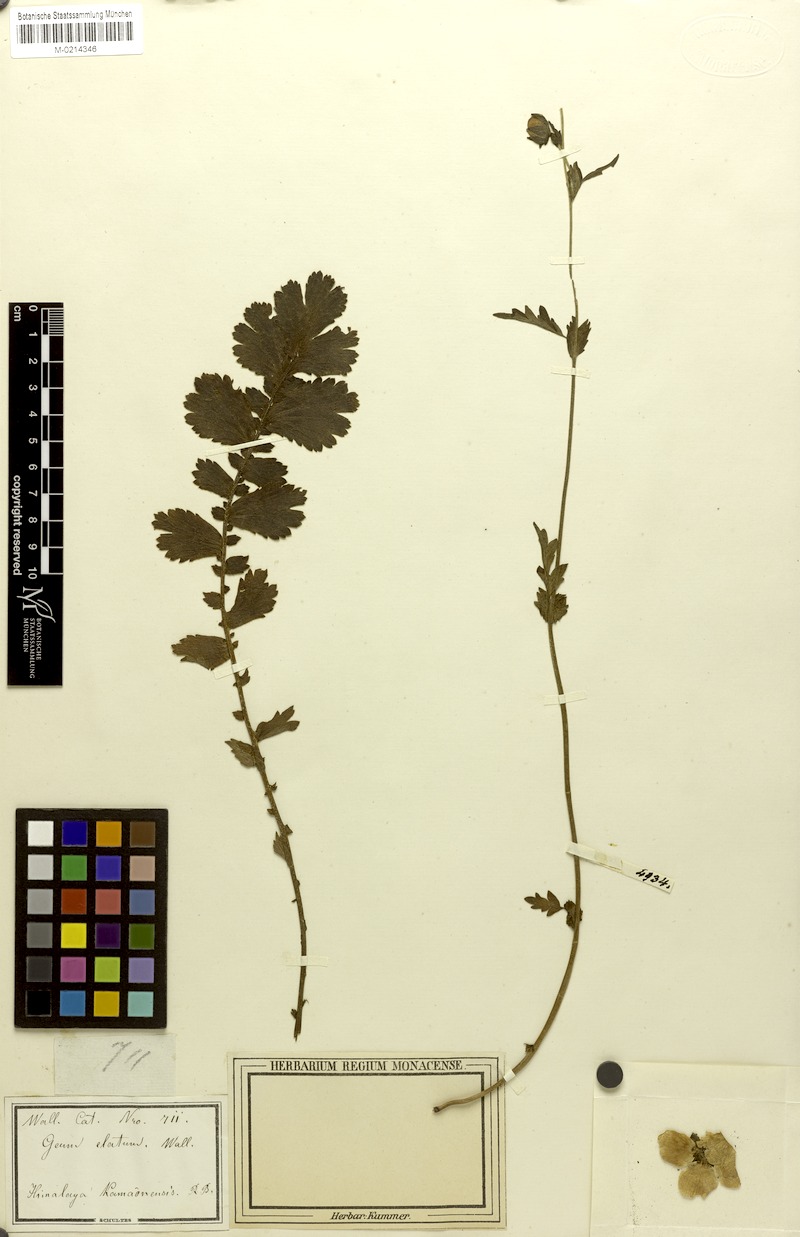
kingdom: Plantae
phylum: Tracheophyta
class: Magnoliopsida
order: Rosales
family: Rosaceae
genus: Geum
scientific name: Geum elatum
